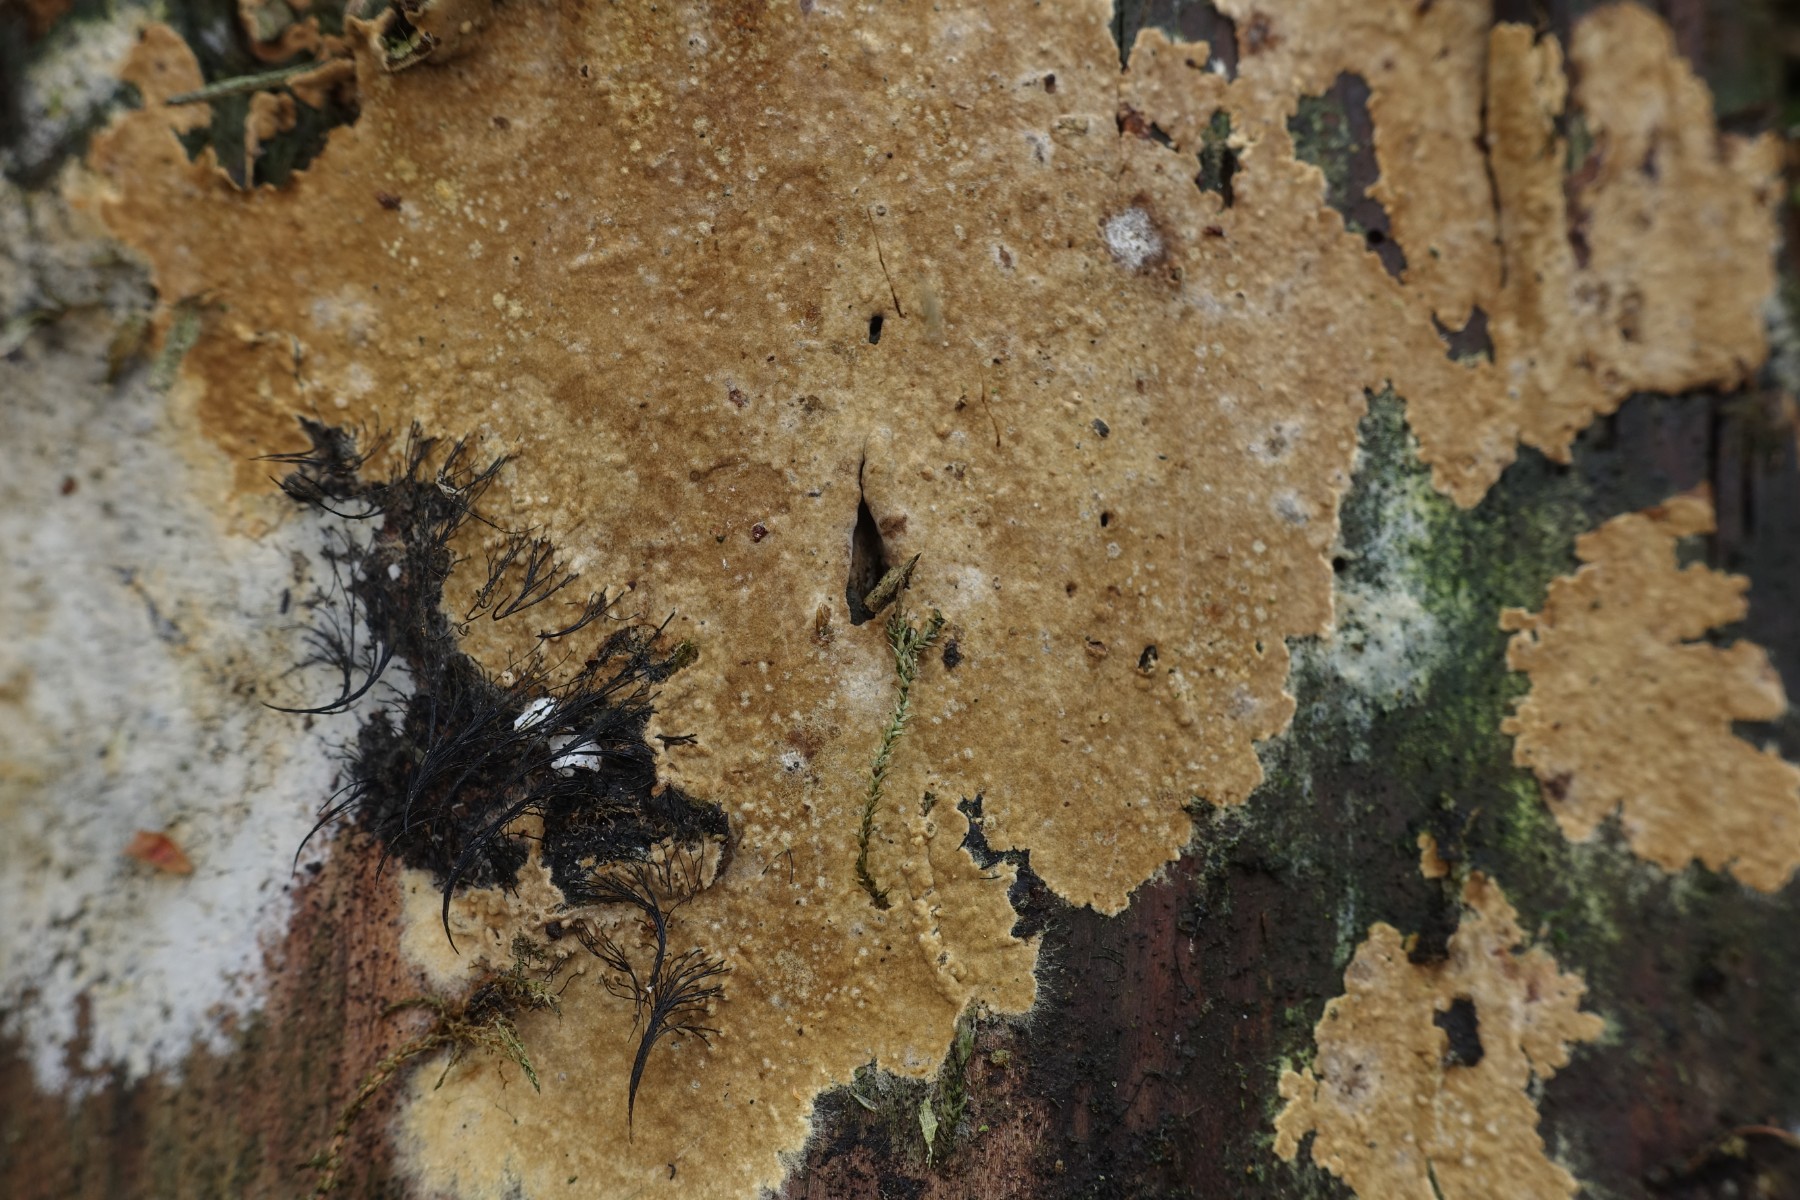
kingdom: Fungi
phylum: Basidiomycota
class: Agaricomycetes
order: Boletales
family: Coniophoraceae
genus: Coniophora
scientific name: Coniophora arida
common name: tynd tømmersvamp
